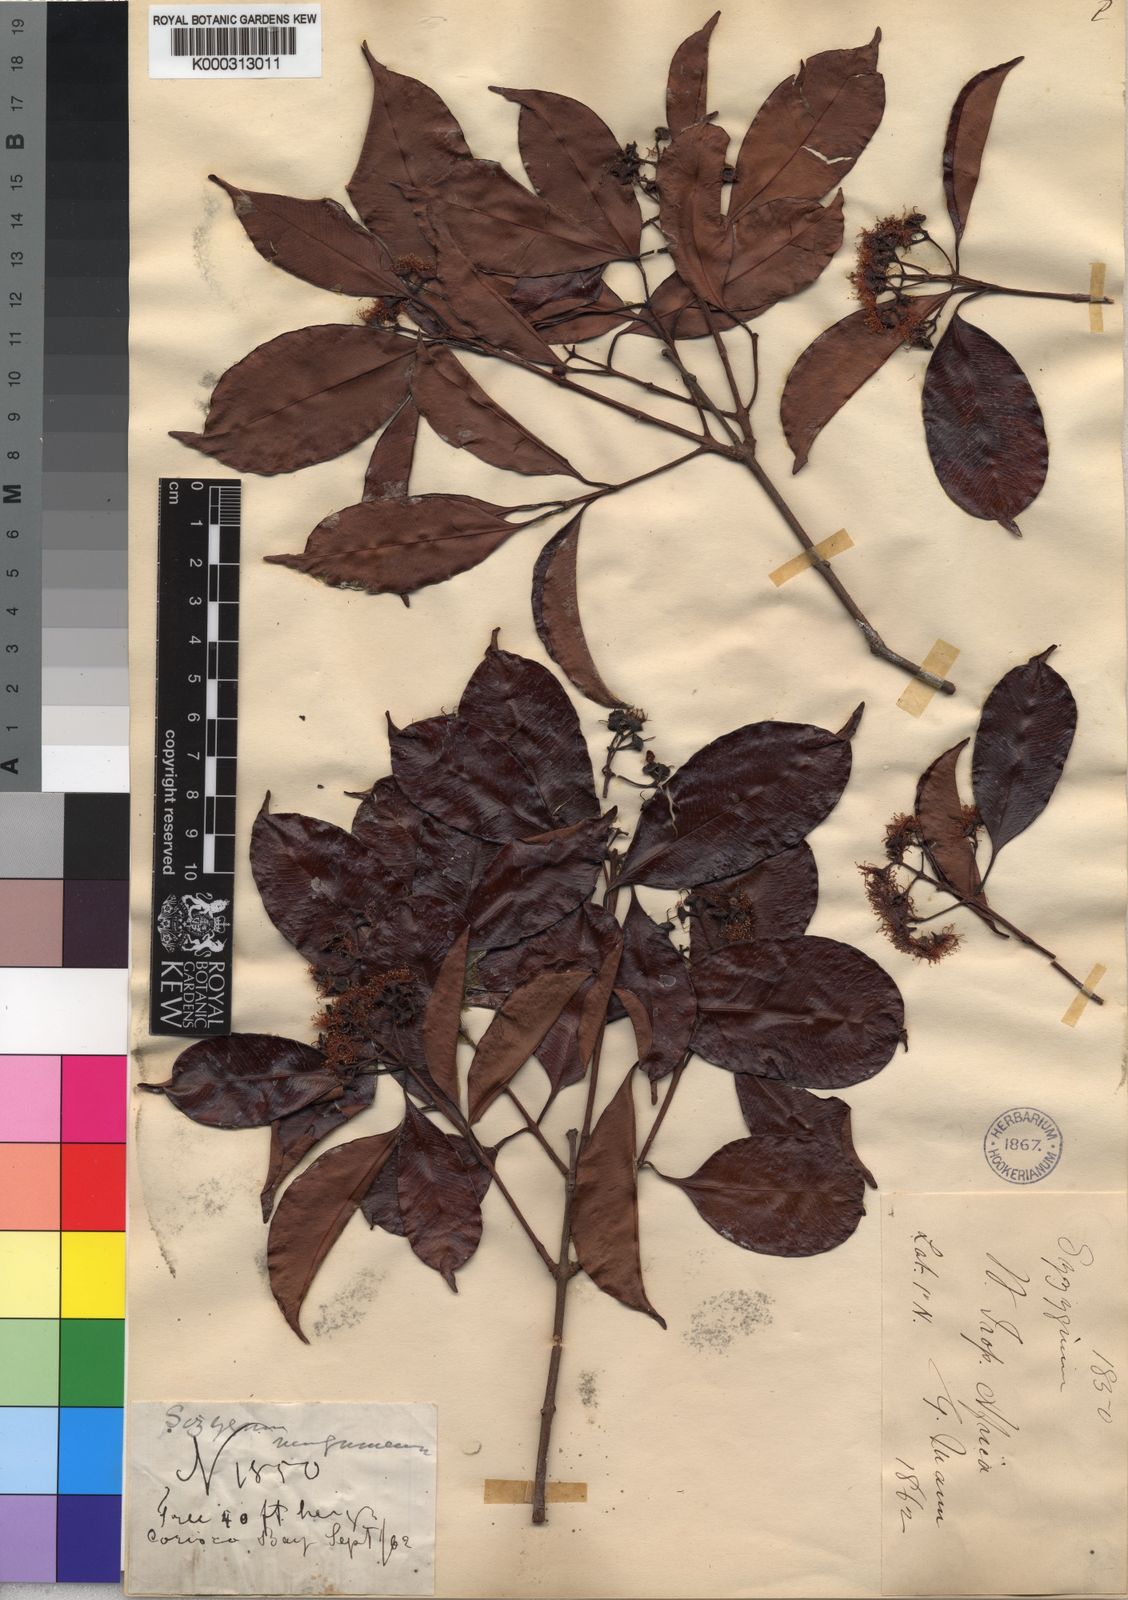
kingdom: Plantae
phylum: Tracheophyta
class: Magnoliopsida
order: Myrtales
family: Myrtaceae
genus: Syzygium
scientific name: Syzygium guineense
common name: Water-pear
